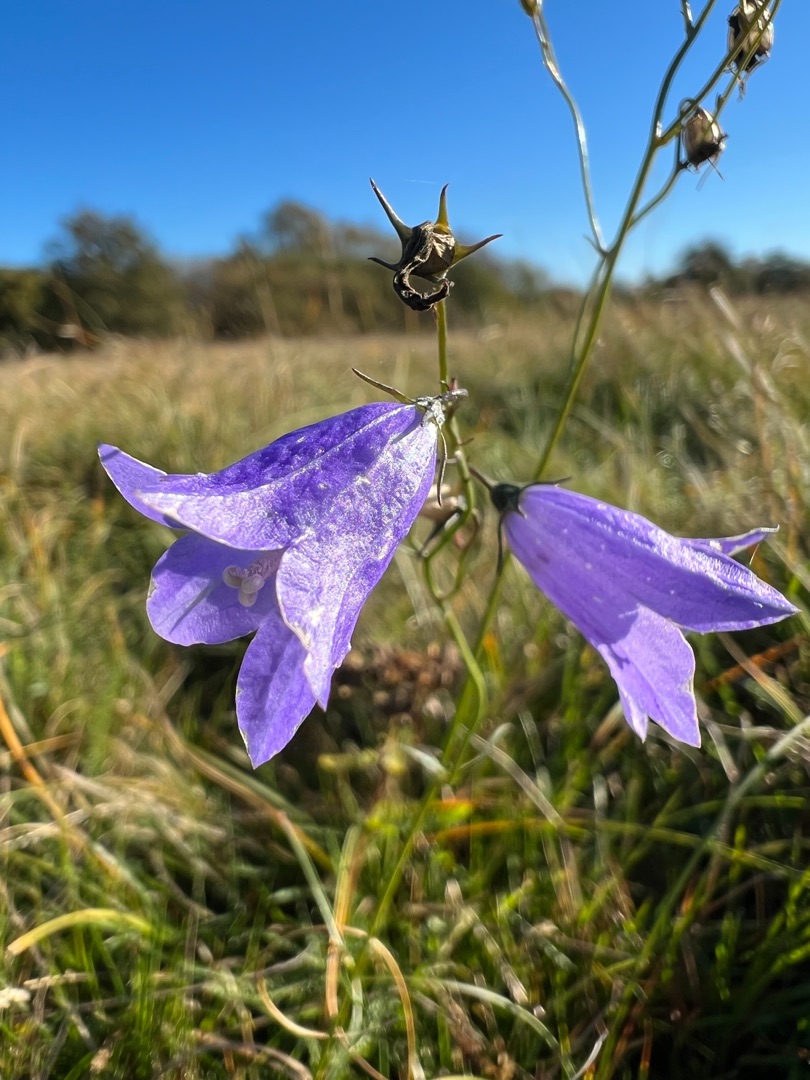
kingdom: Plantae
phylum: Tracheophyta
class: Magnoliopsida
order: Asterales
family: Campanulaceae
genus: Campanula
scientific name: Campanula rotundifolia
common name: Liden klokke
